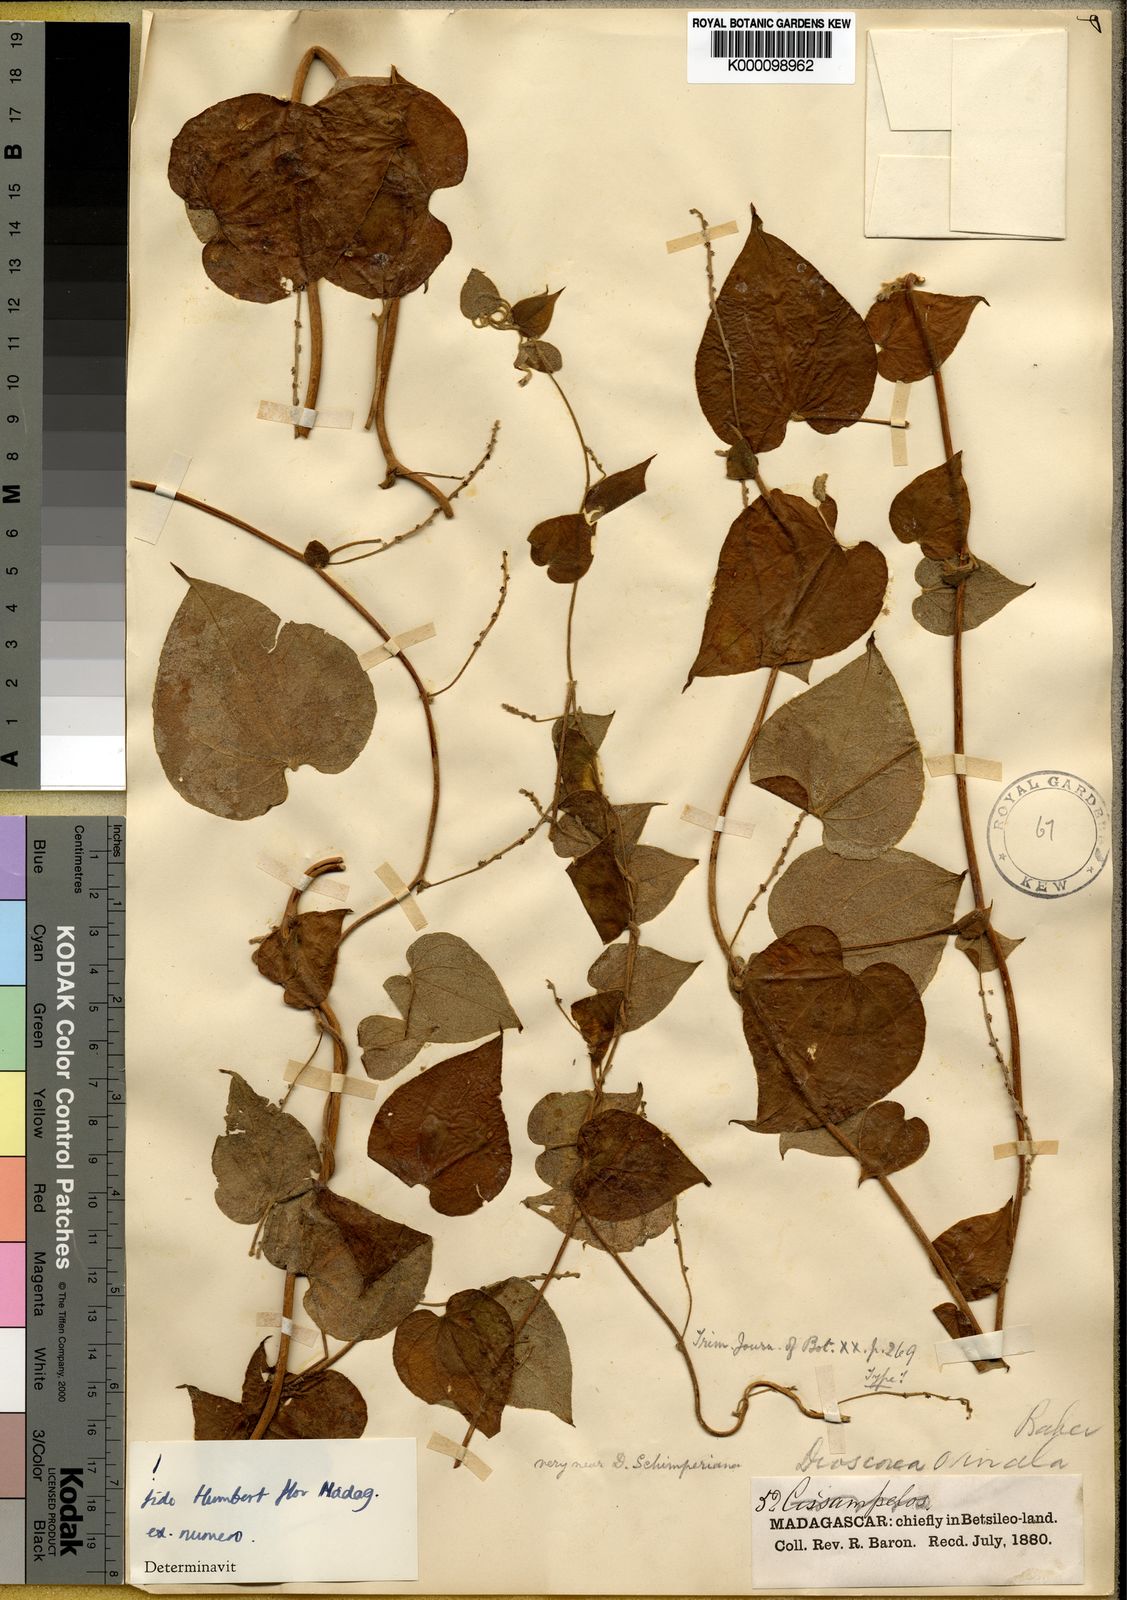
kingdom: Plantae
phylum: Tracheophyta
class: Liliopsida
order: Dioscoreales
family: Dioscoreaceae
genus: Dioscorea
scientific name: Dioscorea ovinala
